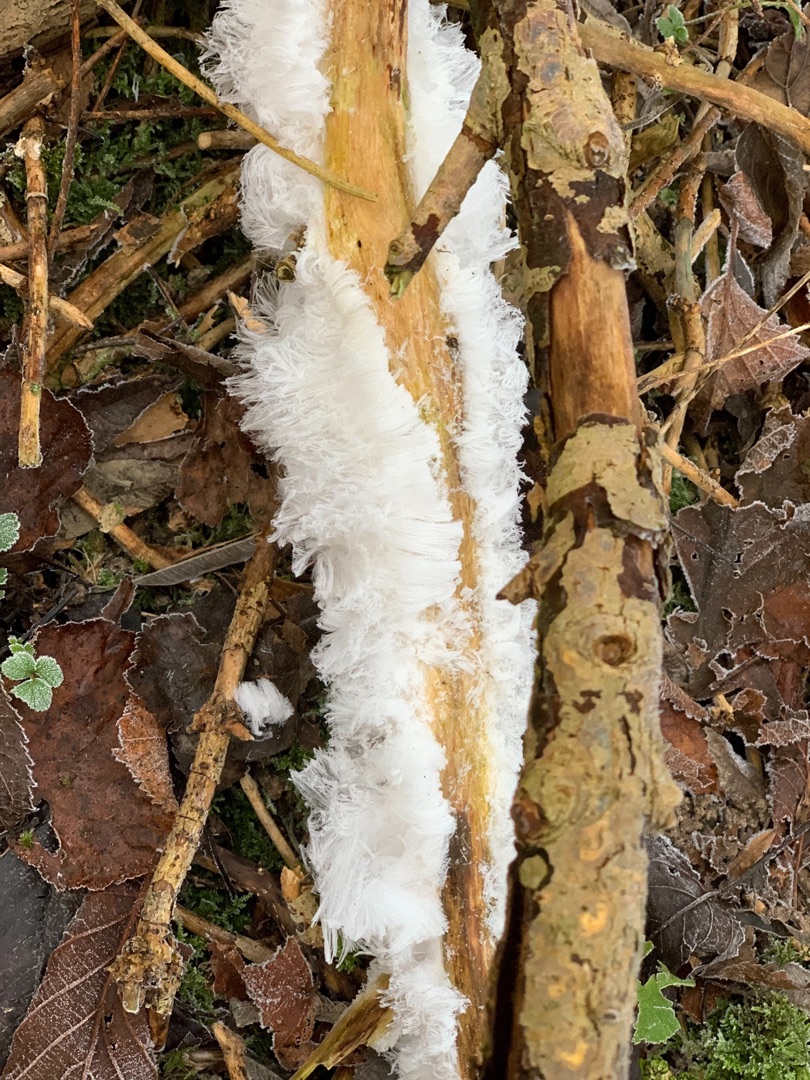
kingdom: Fungi
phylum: Basidiomycota
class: Tremellomycetes
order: Tremellales
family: Exidiaceae
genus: Exidiopsis
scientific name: Exidiopsis effusa
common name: Smuk bævrehinde
